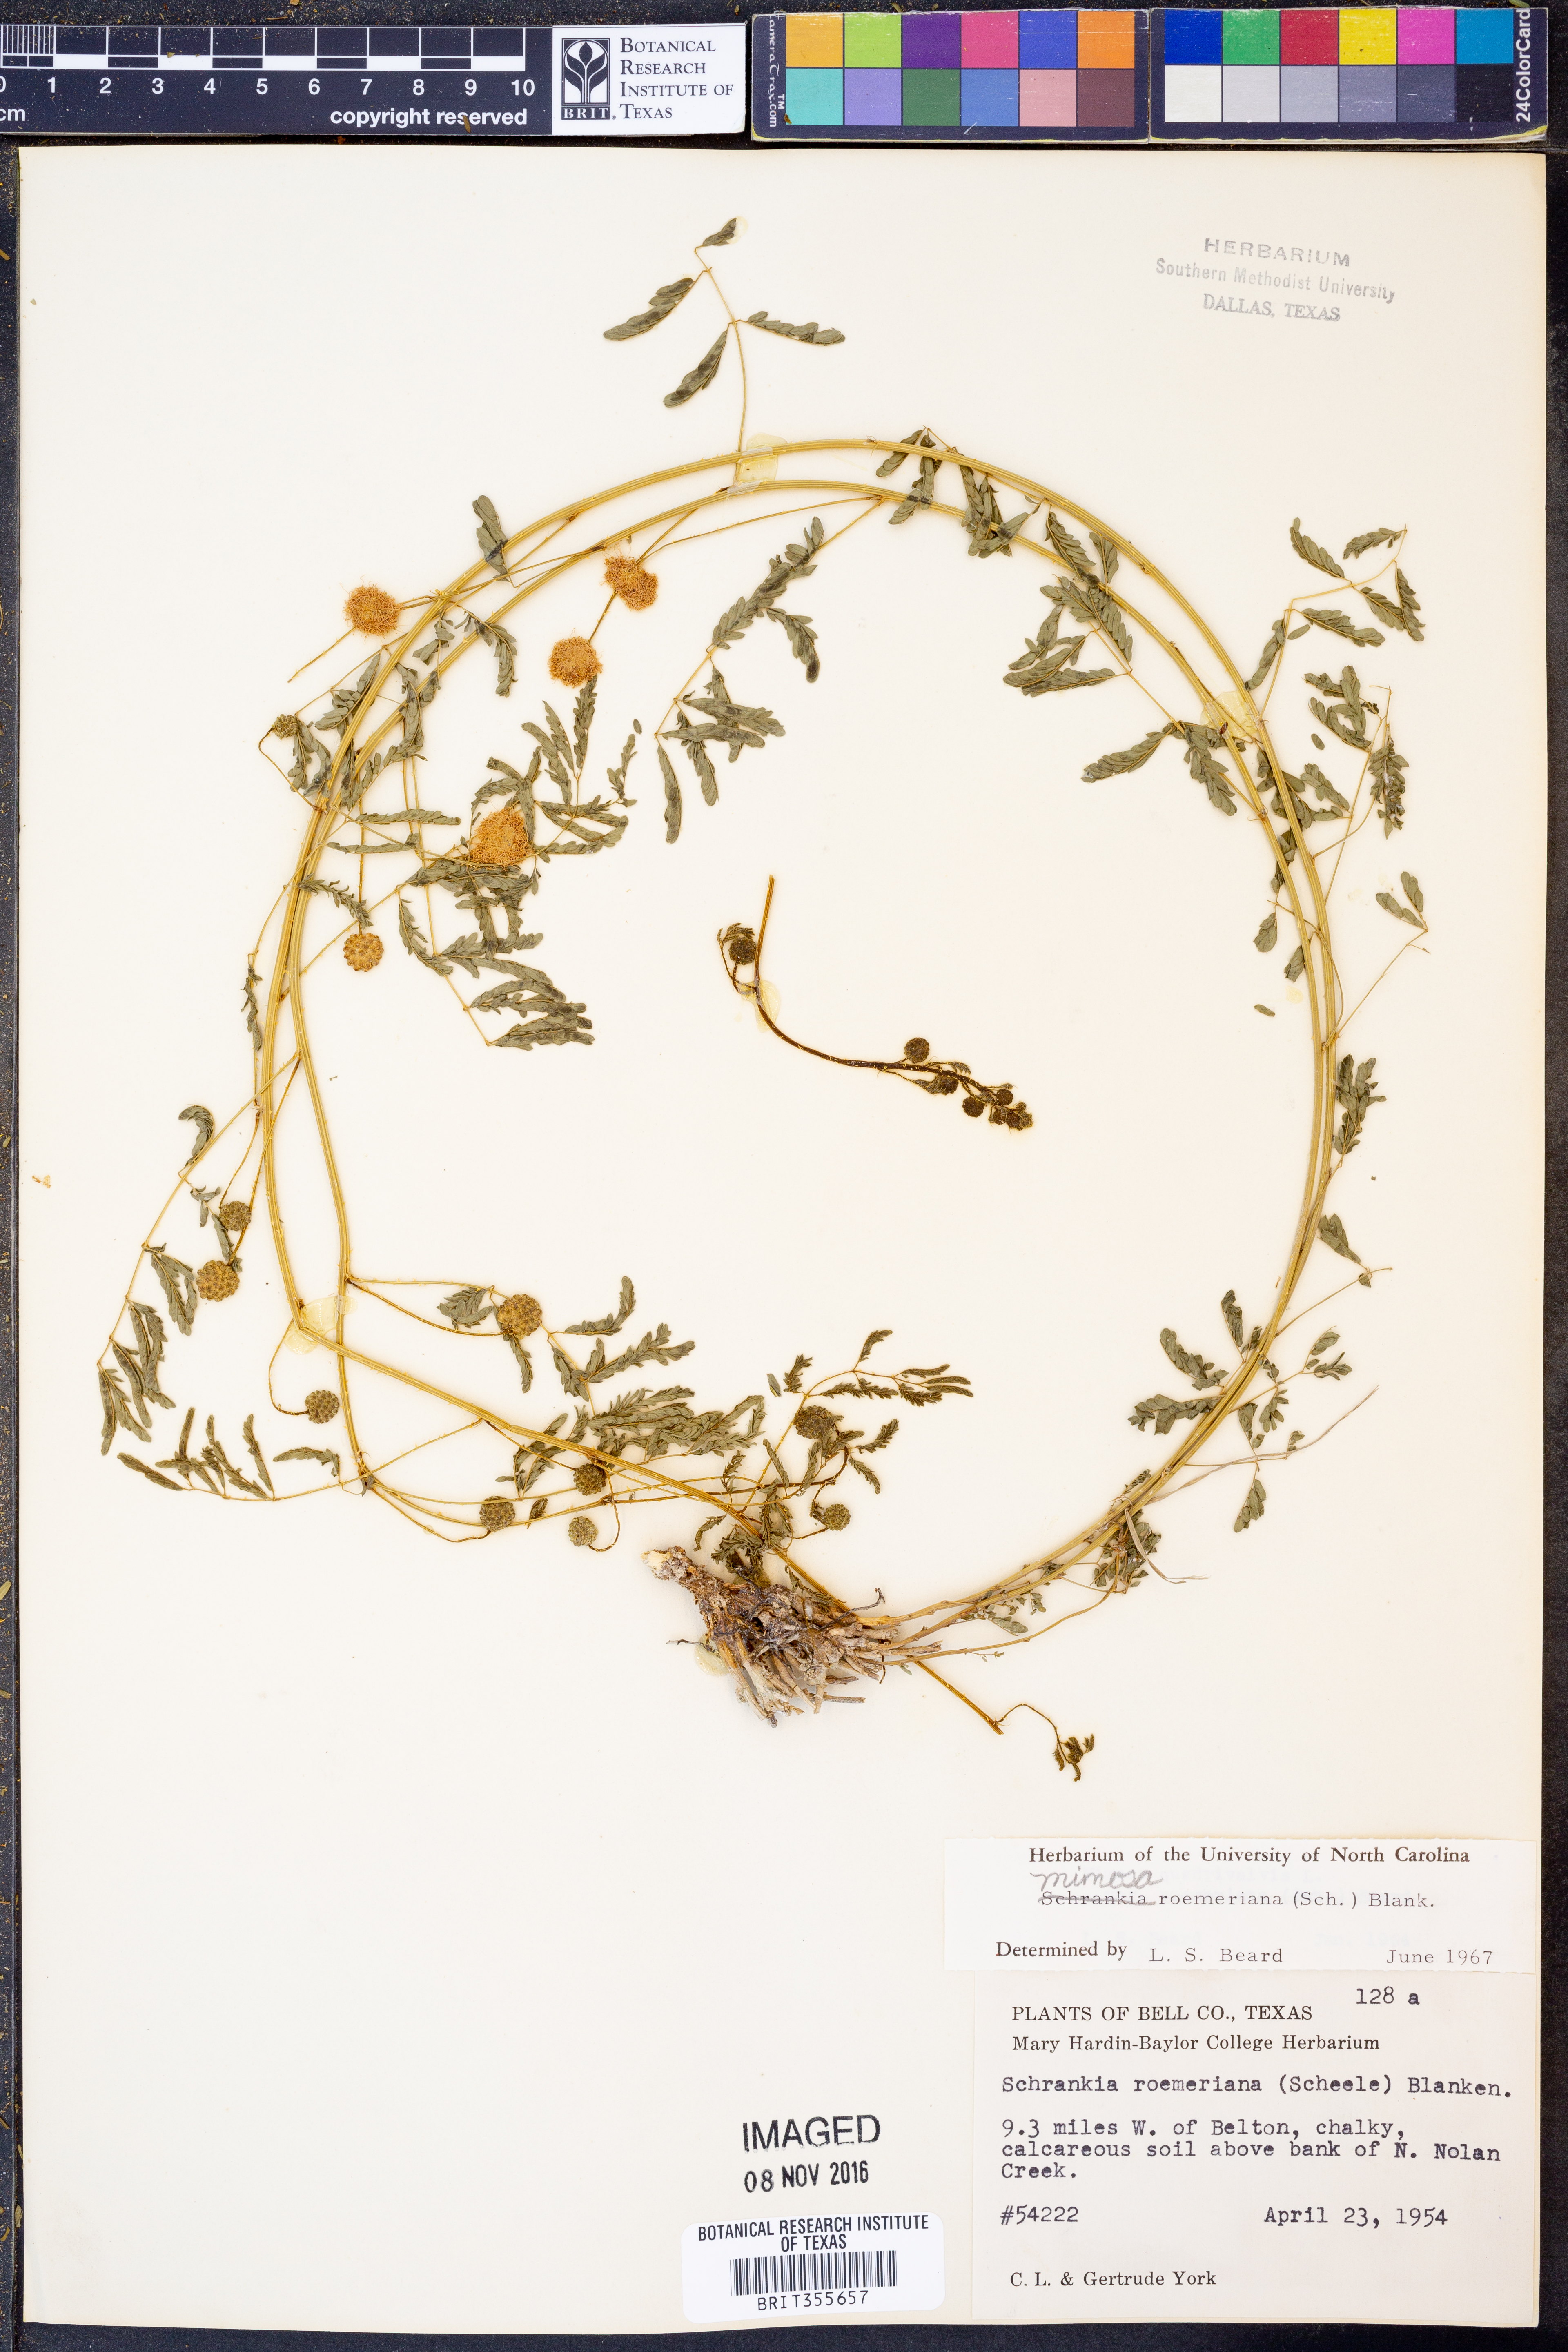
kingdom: Plantae
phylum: Tracheophyta
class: Magnoliopsida
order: Fabales
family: Fabaceae
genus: Mimosa
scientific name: Mimosa quadrivalvis
